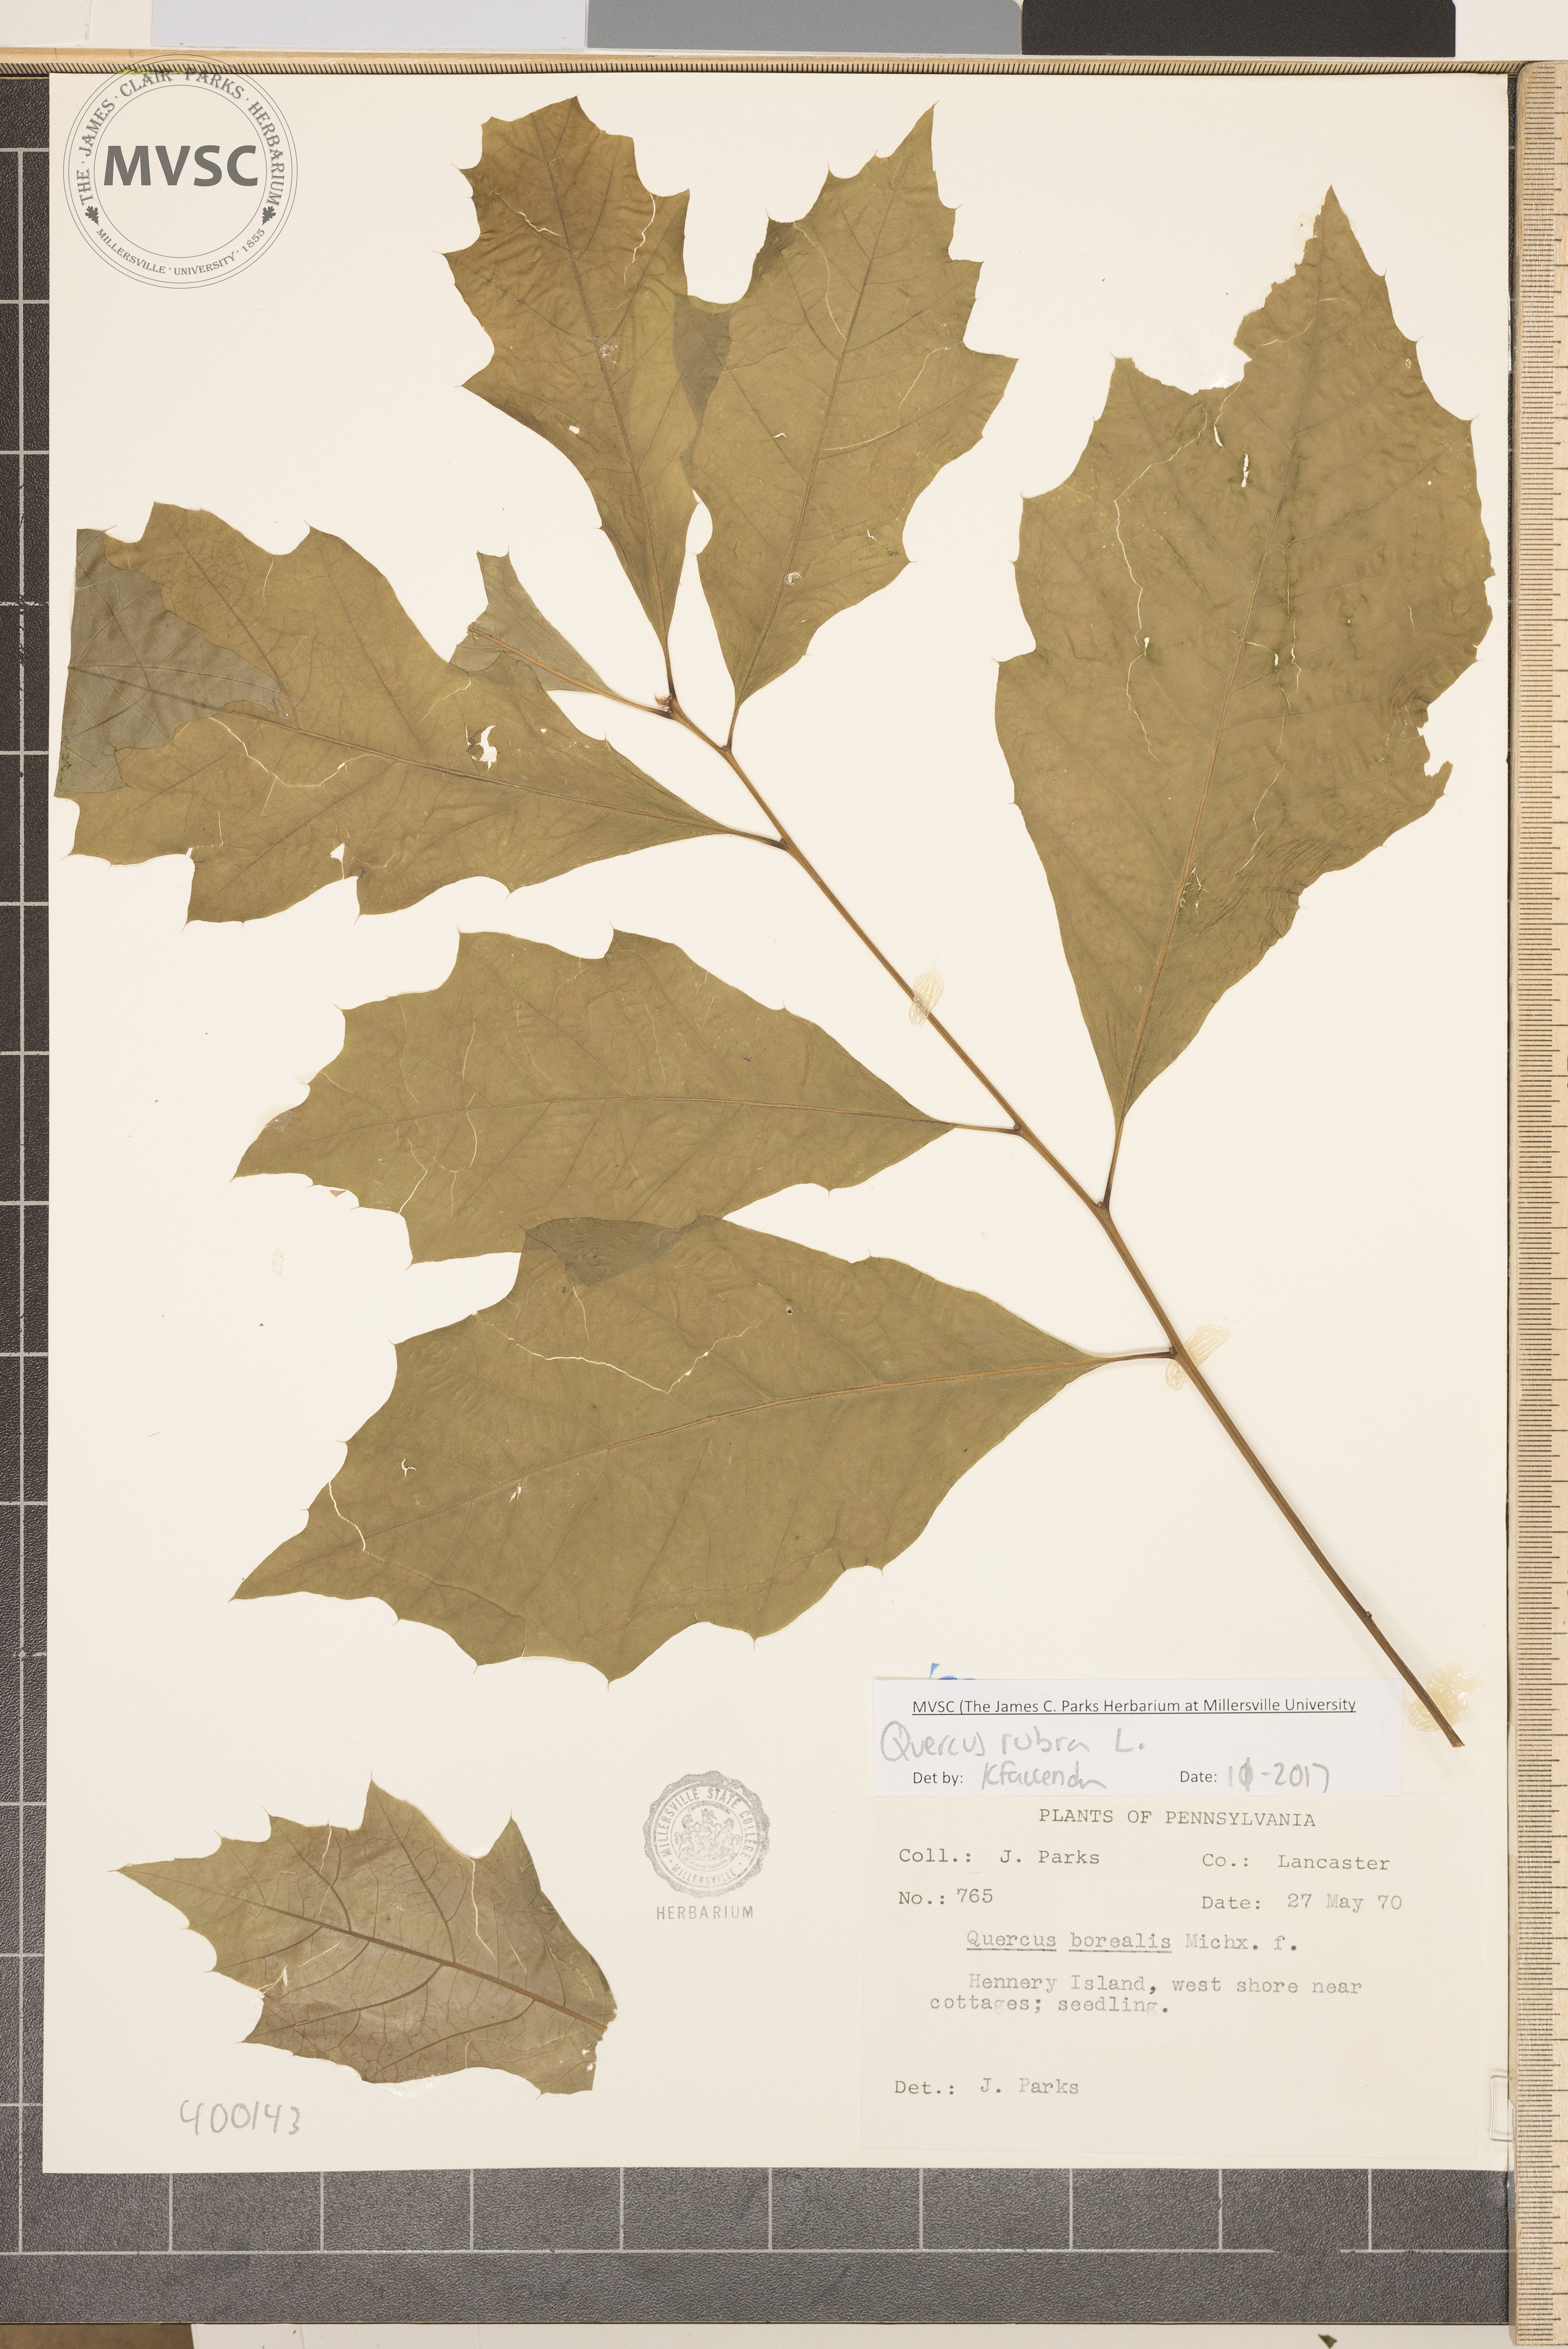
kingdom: Plantae
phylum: Tracheophyta
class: Magnoliopsida
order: Fagales
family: Fagaceae
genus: Quercus
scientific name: Quercus rubra
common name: red oak
